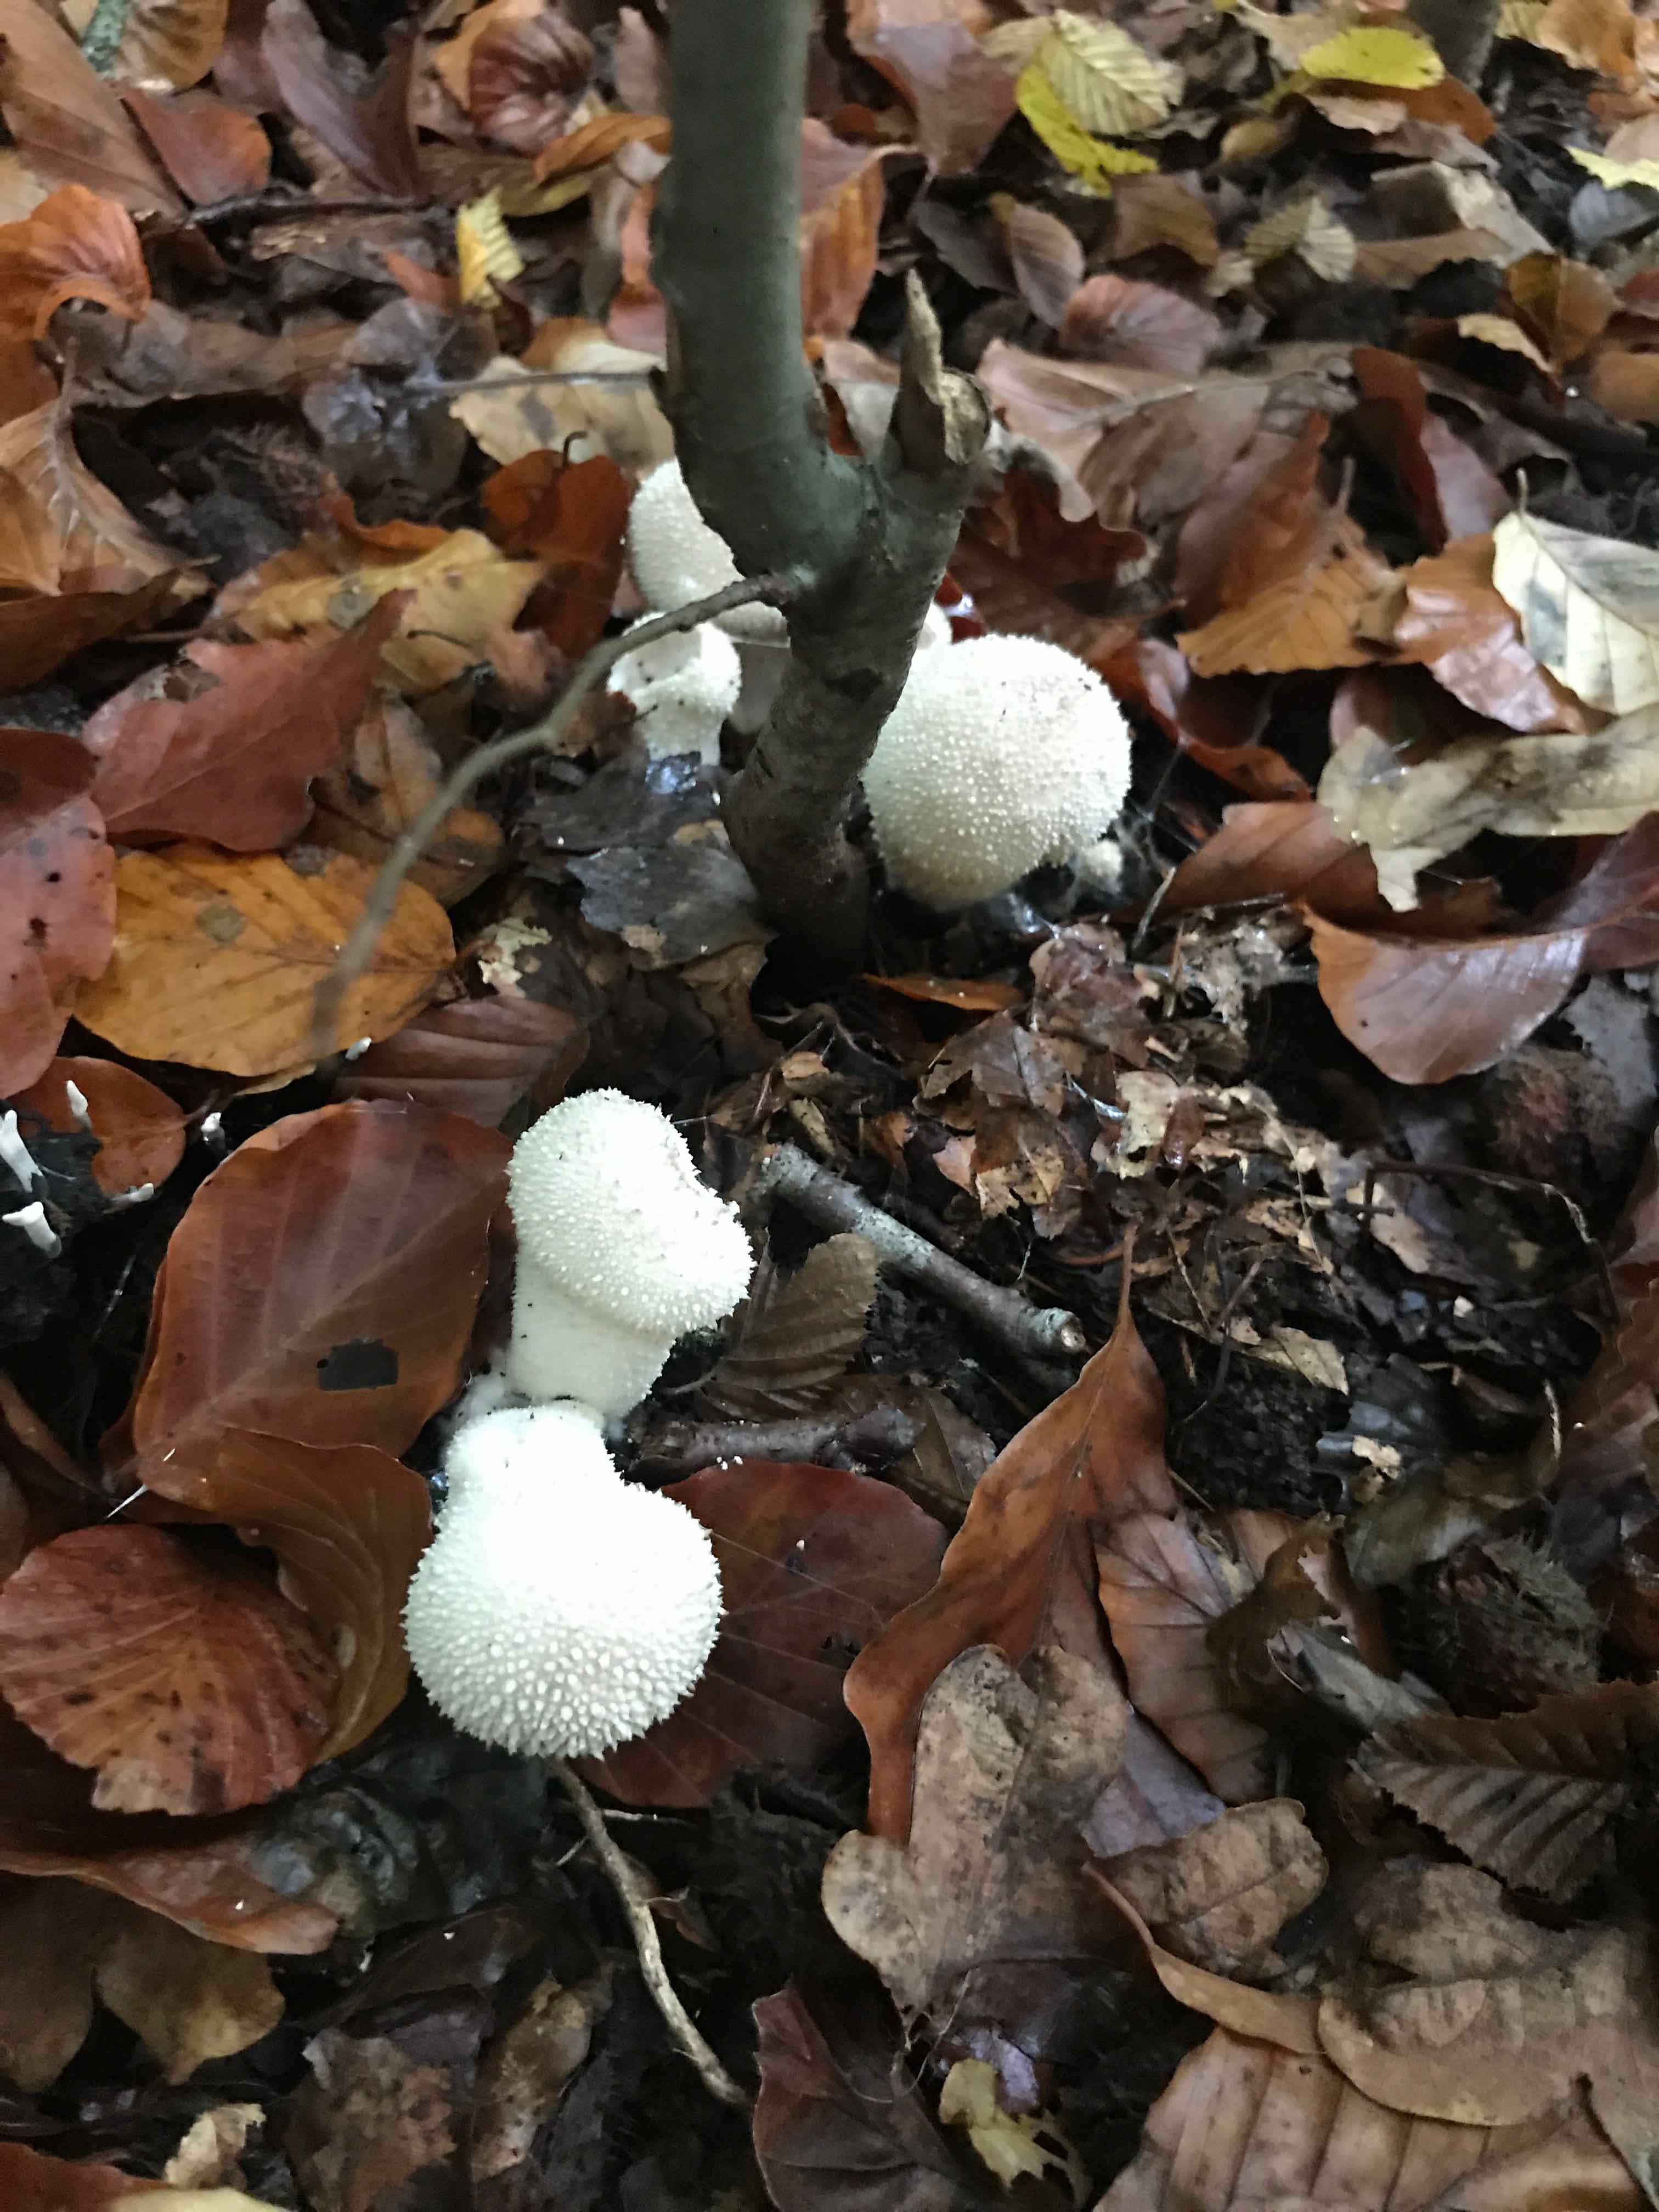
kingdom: Fungi
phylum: Basidiomycota
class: Agaricomycetes
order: Agaricales
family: Lycoperdaceae
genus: Lycoperdon
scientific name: Lycoperdon perlatum
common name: krystal-støvbold
